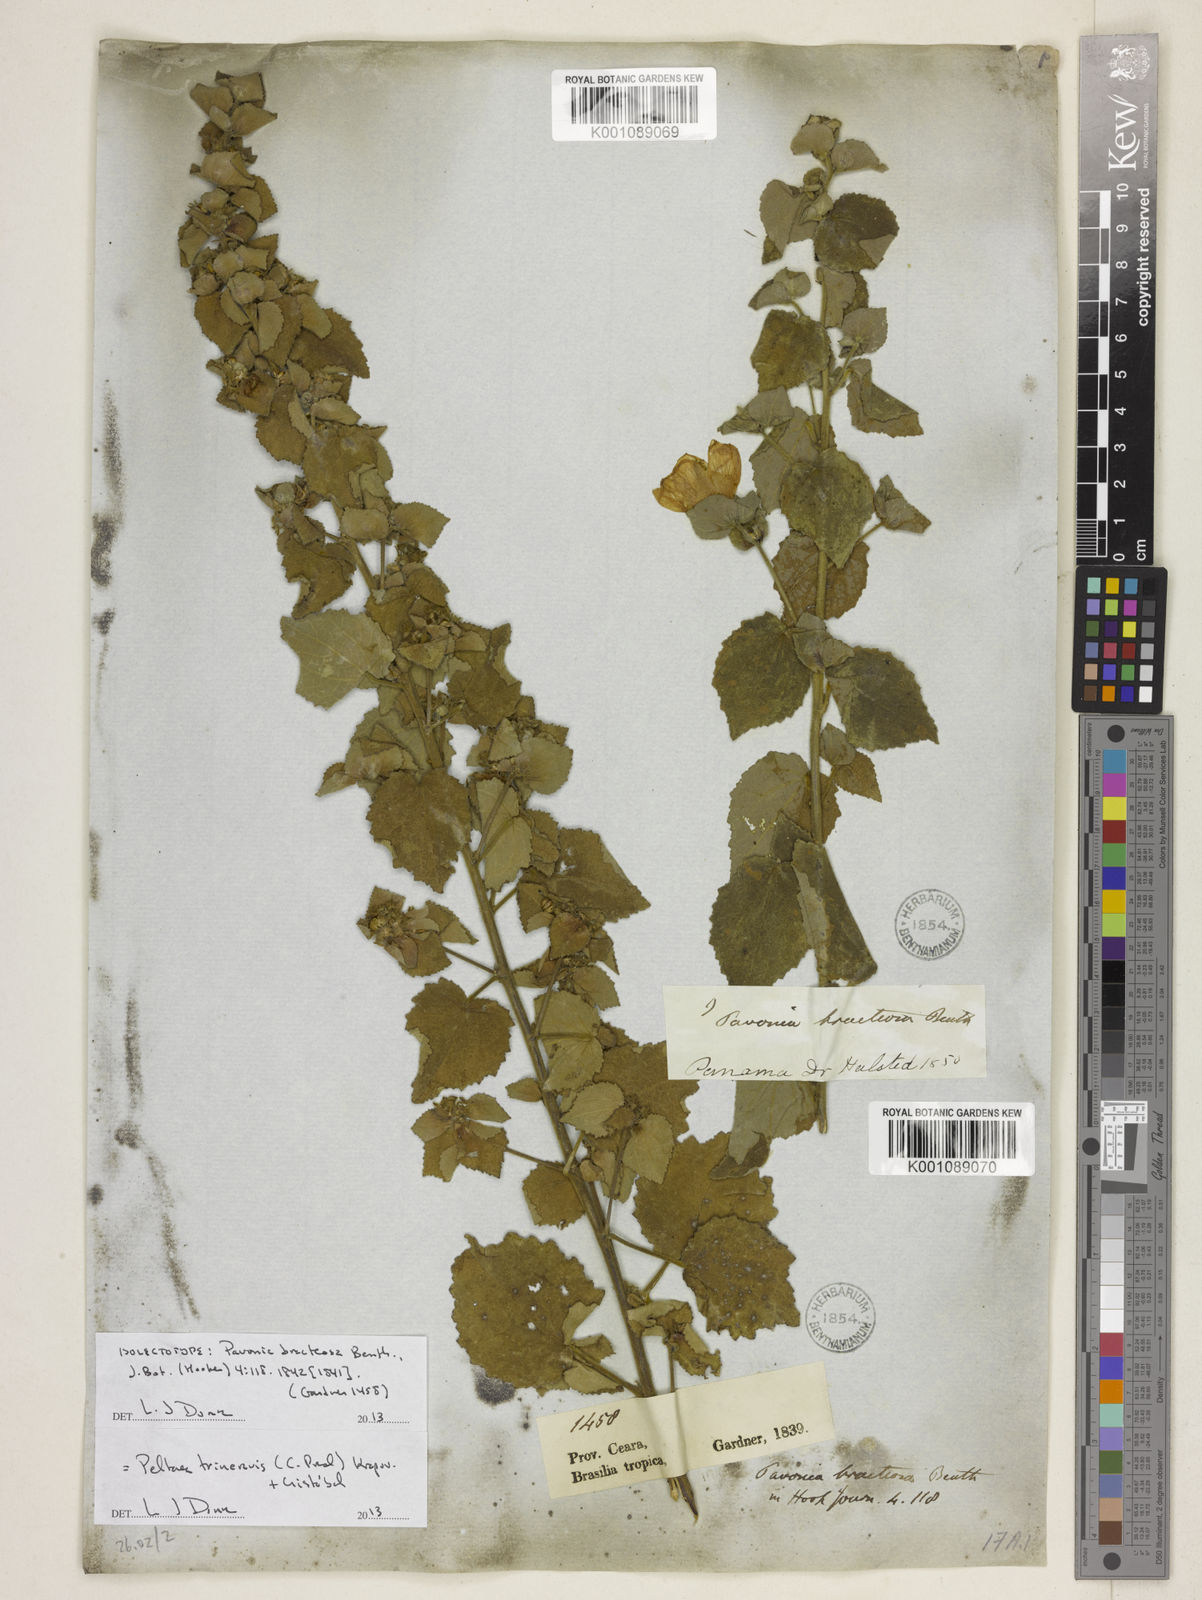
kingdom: Plantae
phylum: Tracheophyta
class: Magnoliopsida
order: Malvales
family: Malvaceae
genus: Peltaea
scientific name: Peltaea
